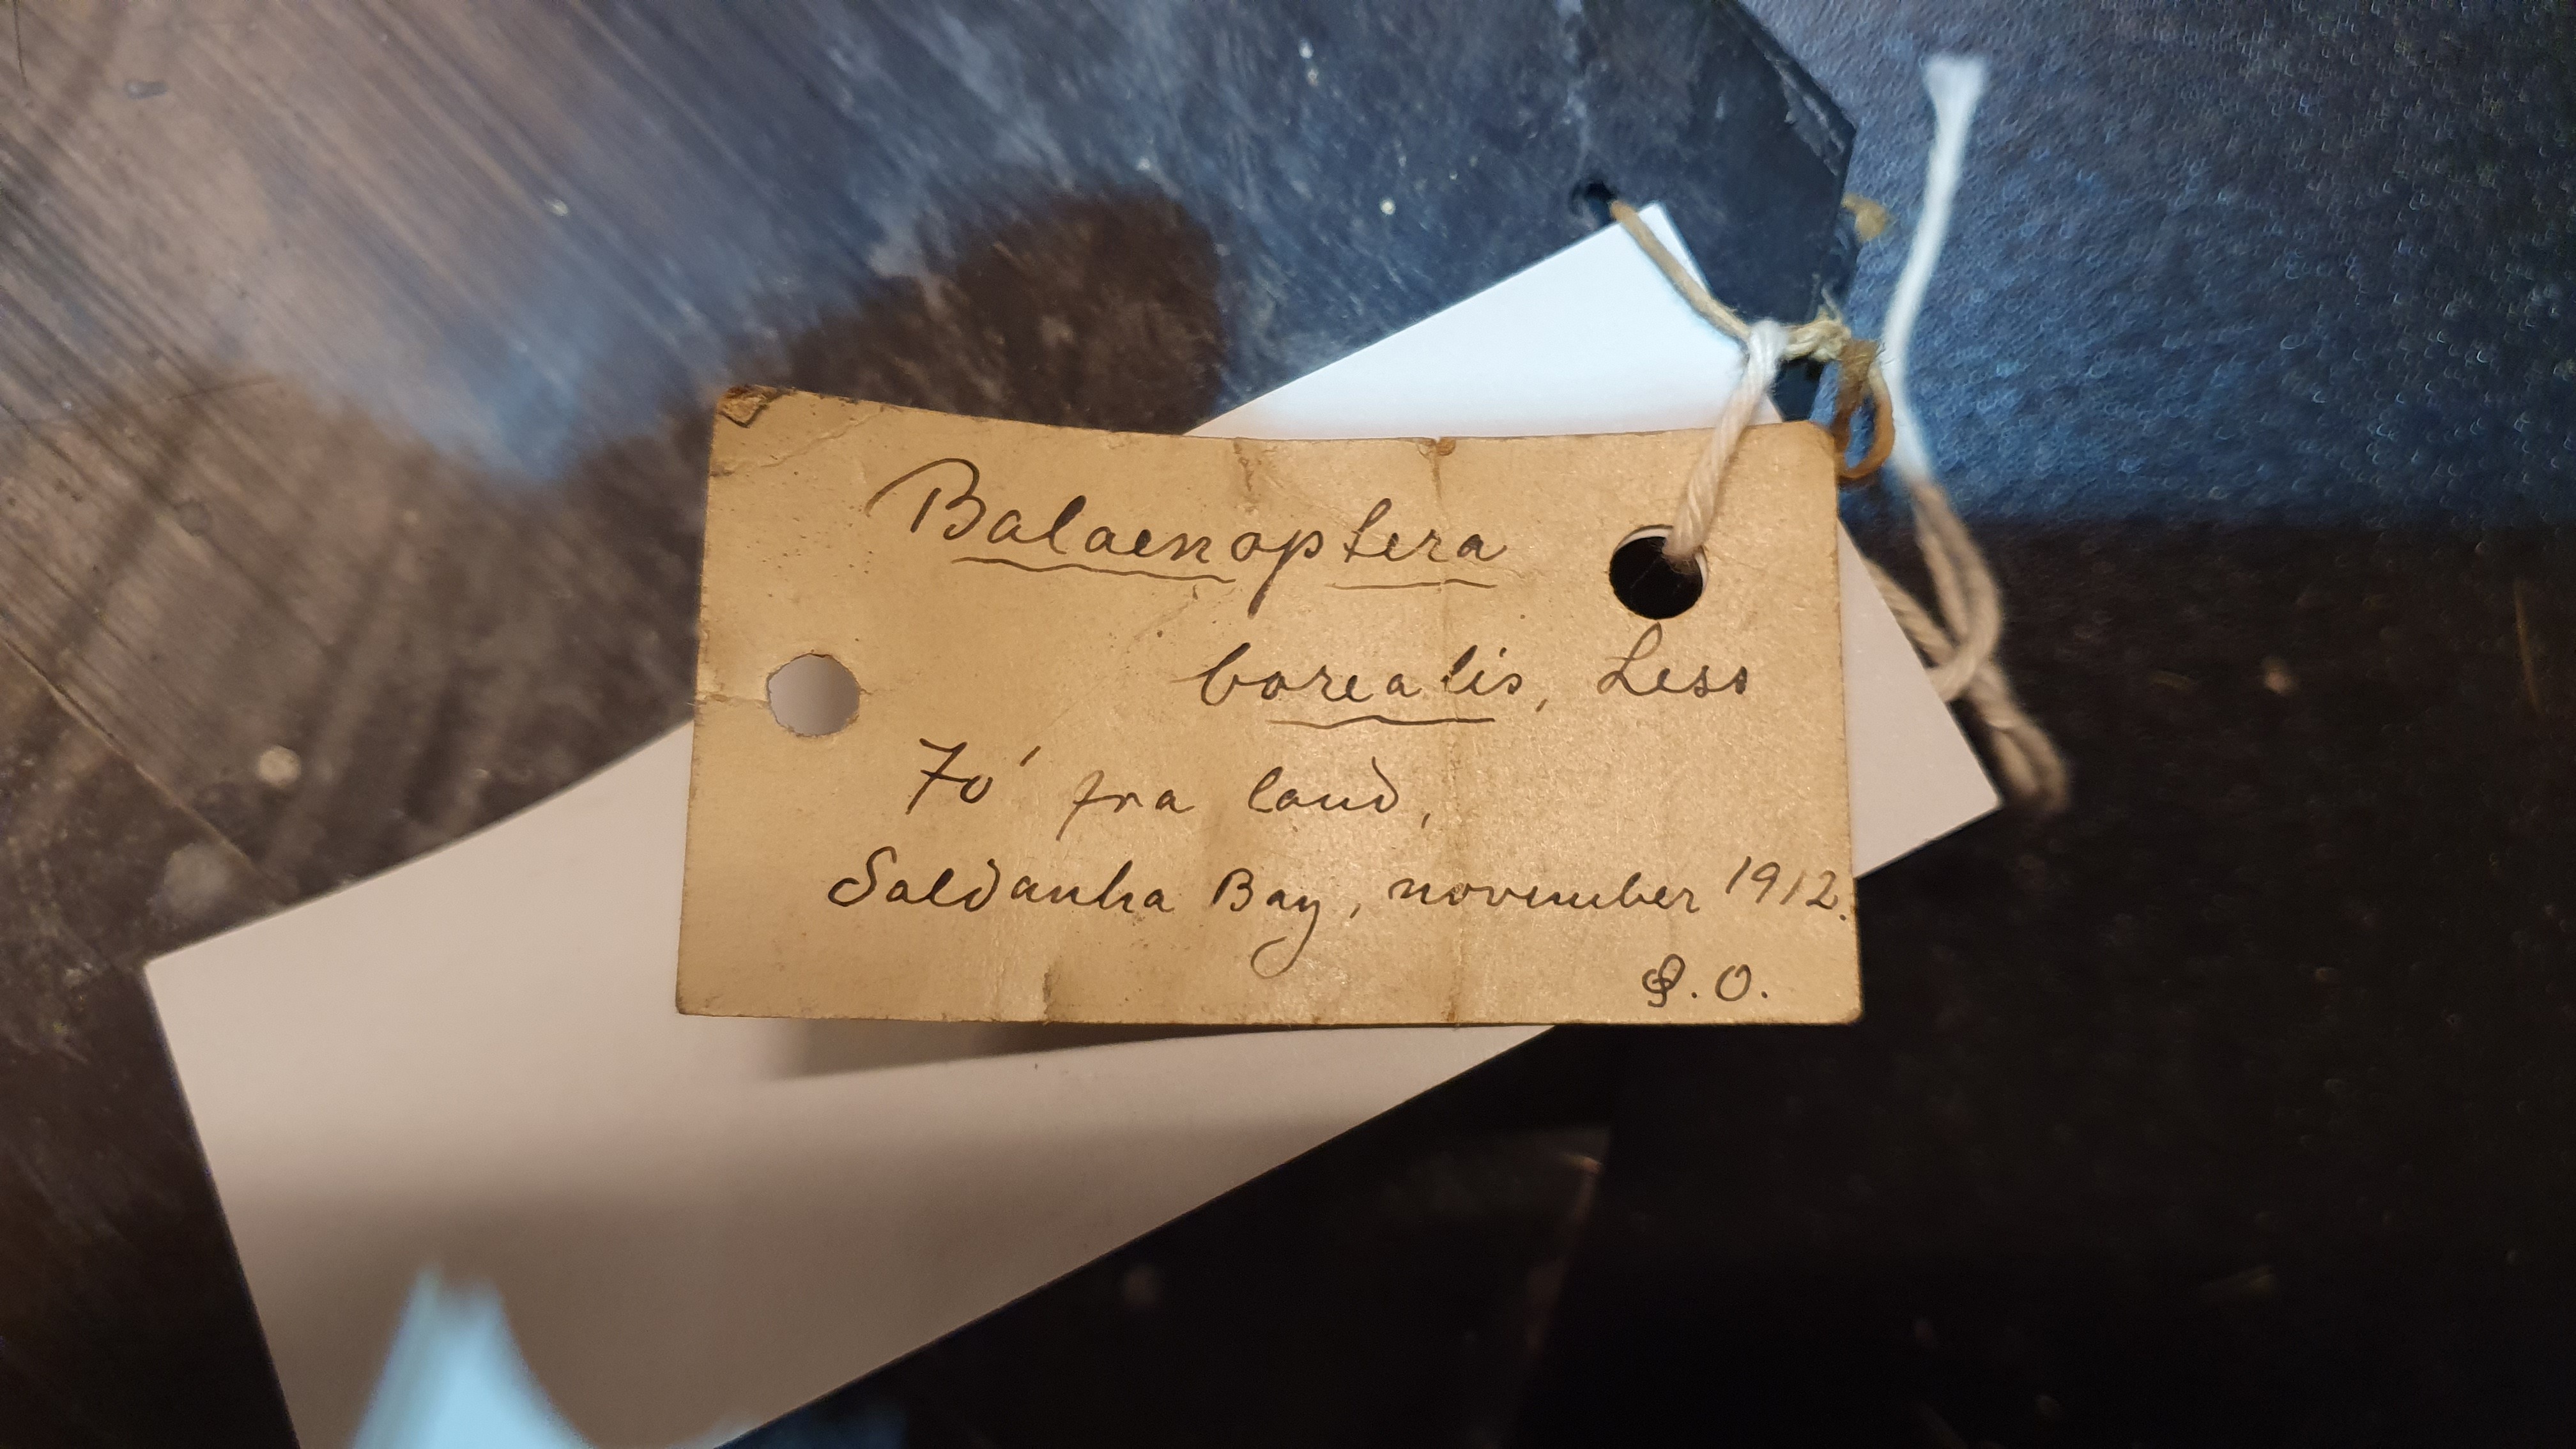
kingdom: Animalia
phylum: Chordata
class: Mammalia
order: Cetacea
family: Balaenopteridae
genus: Balaenoptera
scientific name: Balaenoptera borealis
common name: Sei whale
